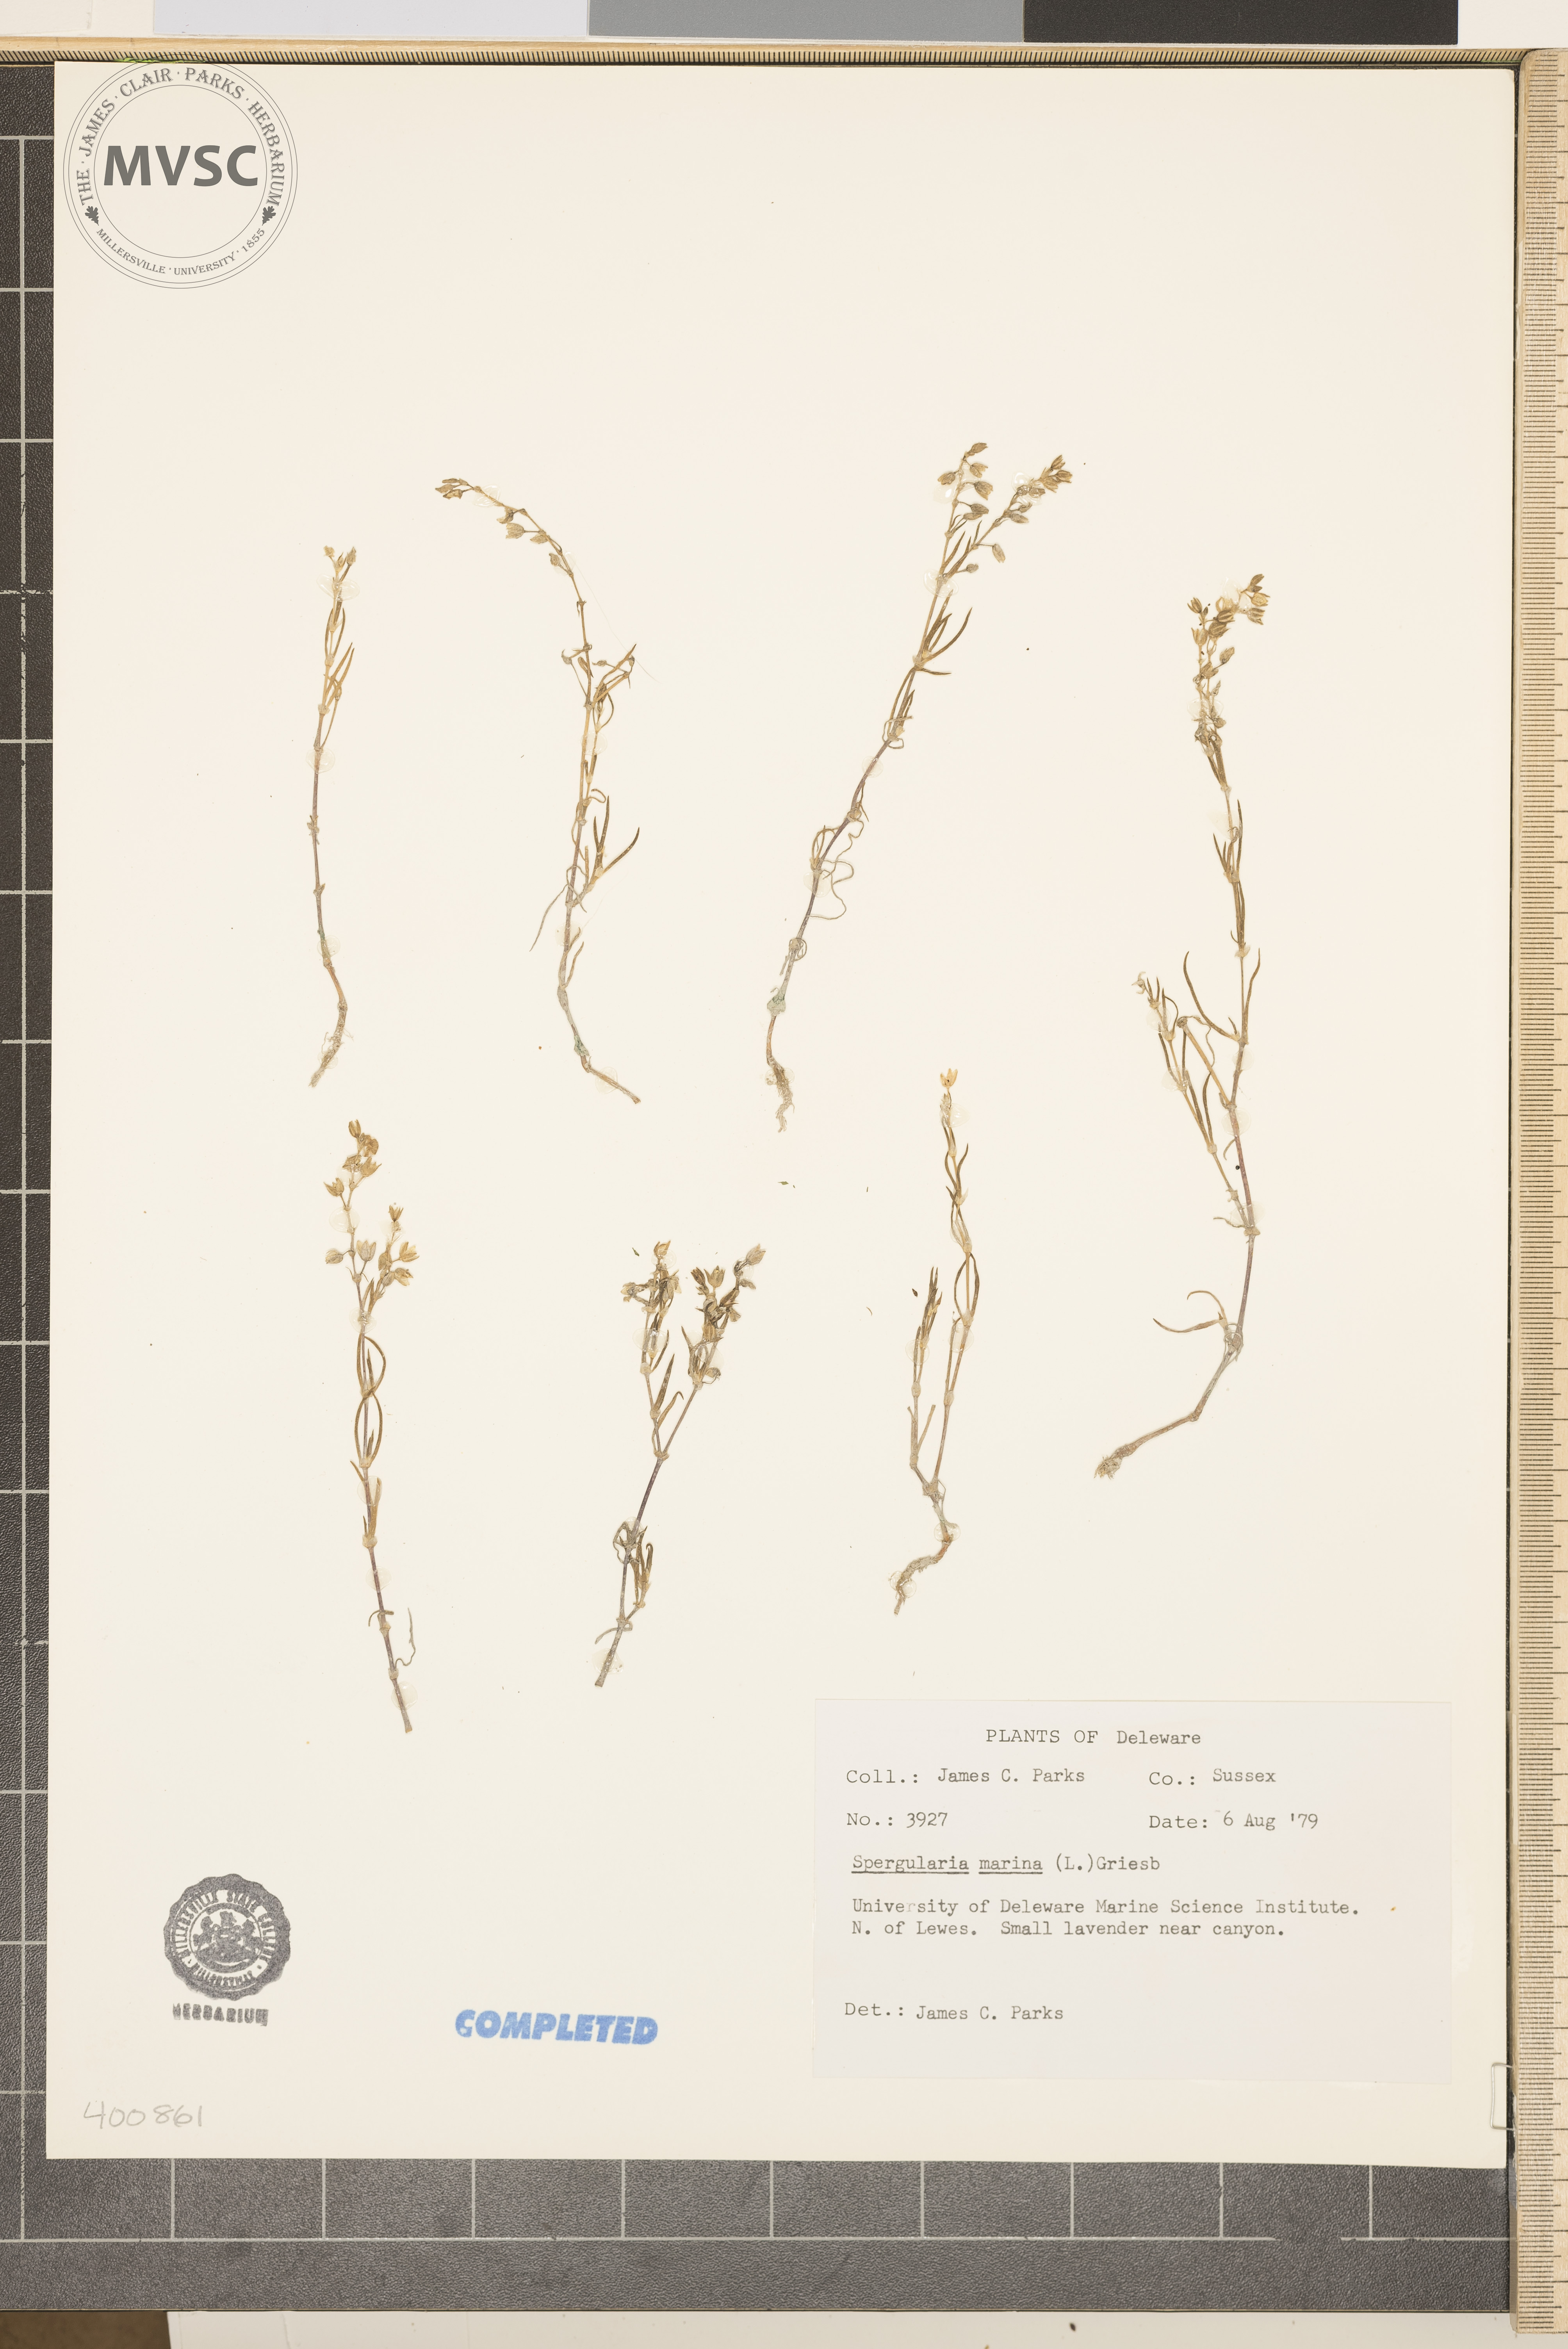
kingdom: Plantae
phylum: Tracheophyta
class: Magnoliopsida
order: Caryophyllales
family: Caryophyllaceae
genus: Spergularia
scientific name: Spergularia marina
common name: Lesser sea-spurrey
